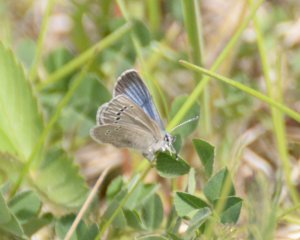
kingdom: Animalia
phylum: Arthropoda
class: Insecta
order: Lepidoptera
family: Lycaenidae
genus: Glaucopsyche
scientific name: Glaucopsyche lygdamus
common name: Silvery Blue
